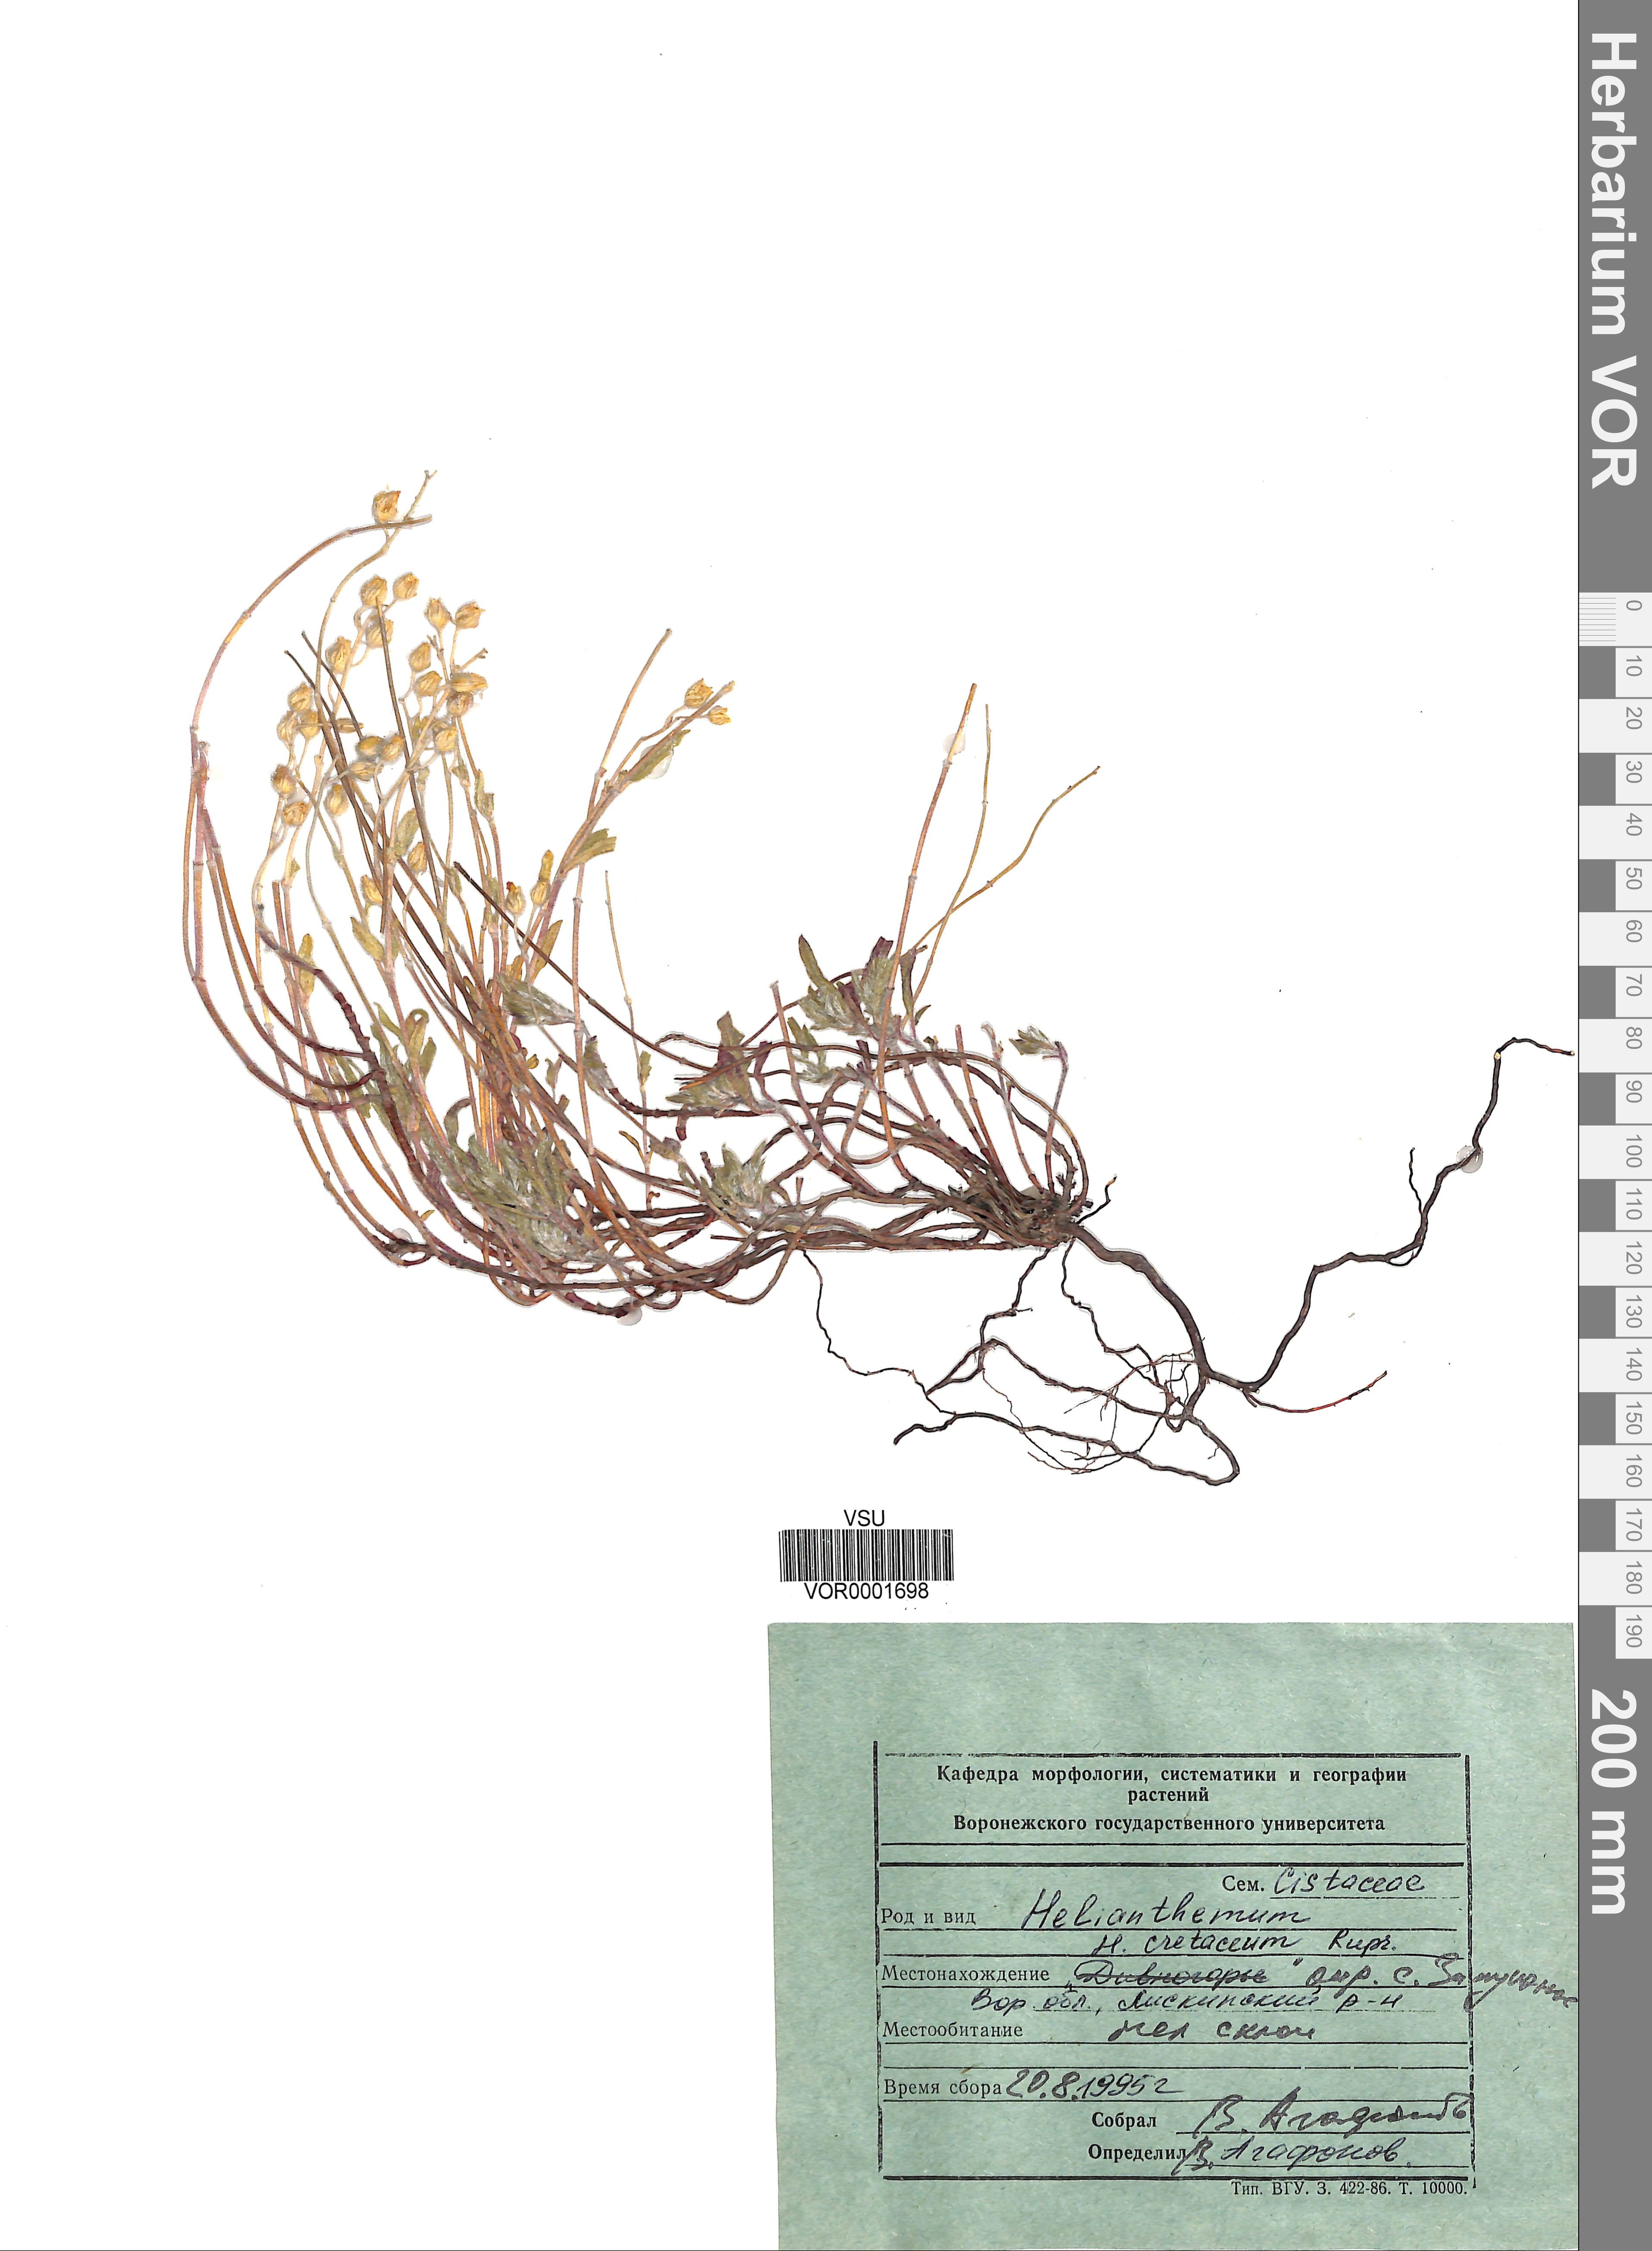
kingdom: Plantae
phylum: Tracheophyta
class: Magnoliopsida
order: Malvales
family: Cistaceae
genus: Helianthemum
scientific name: Helianthemum rupifragum
